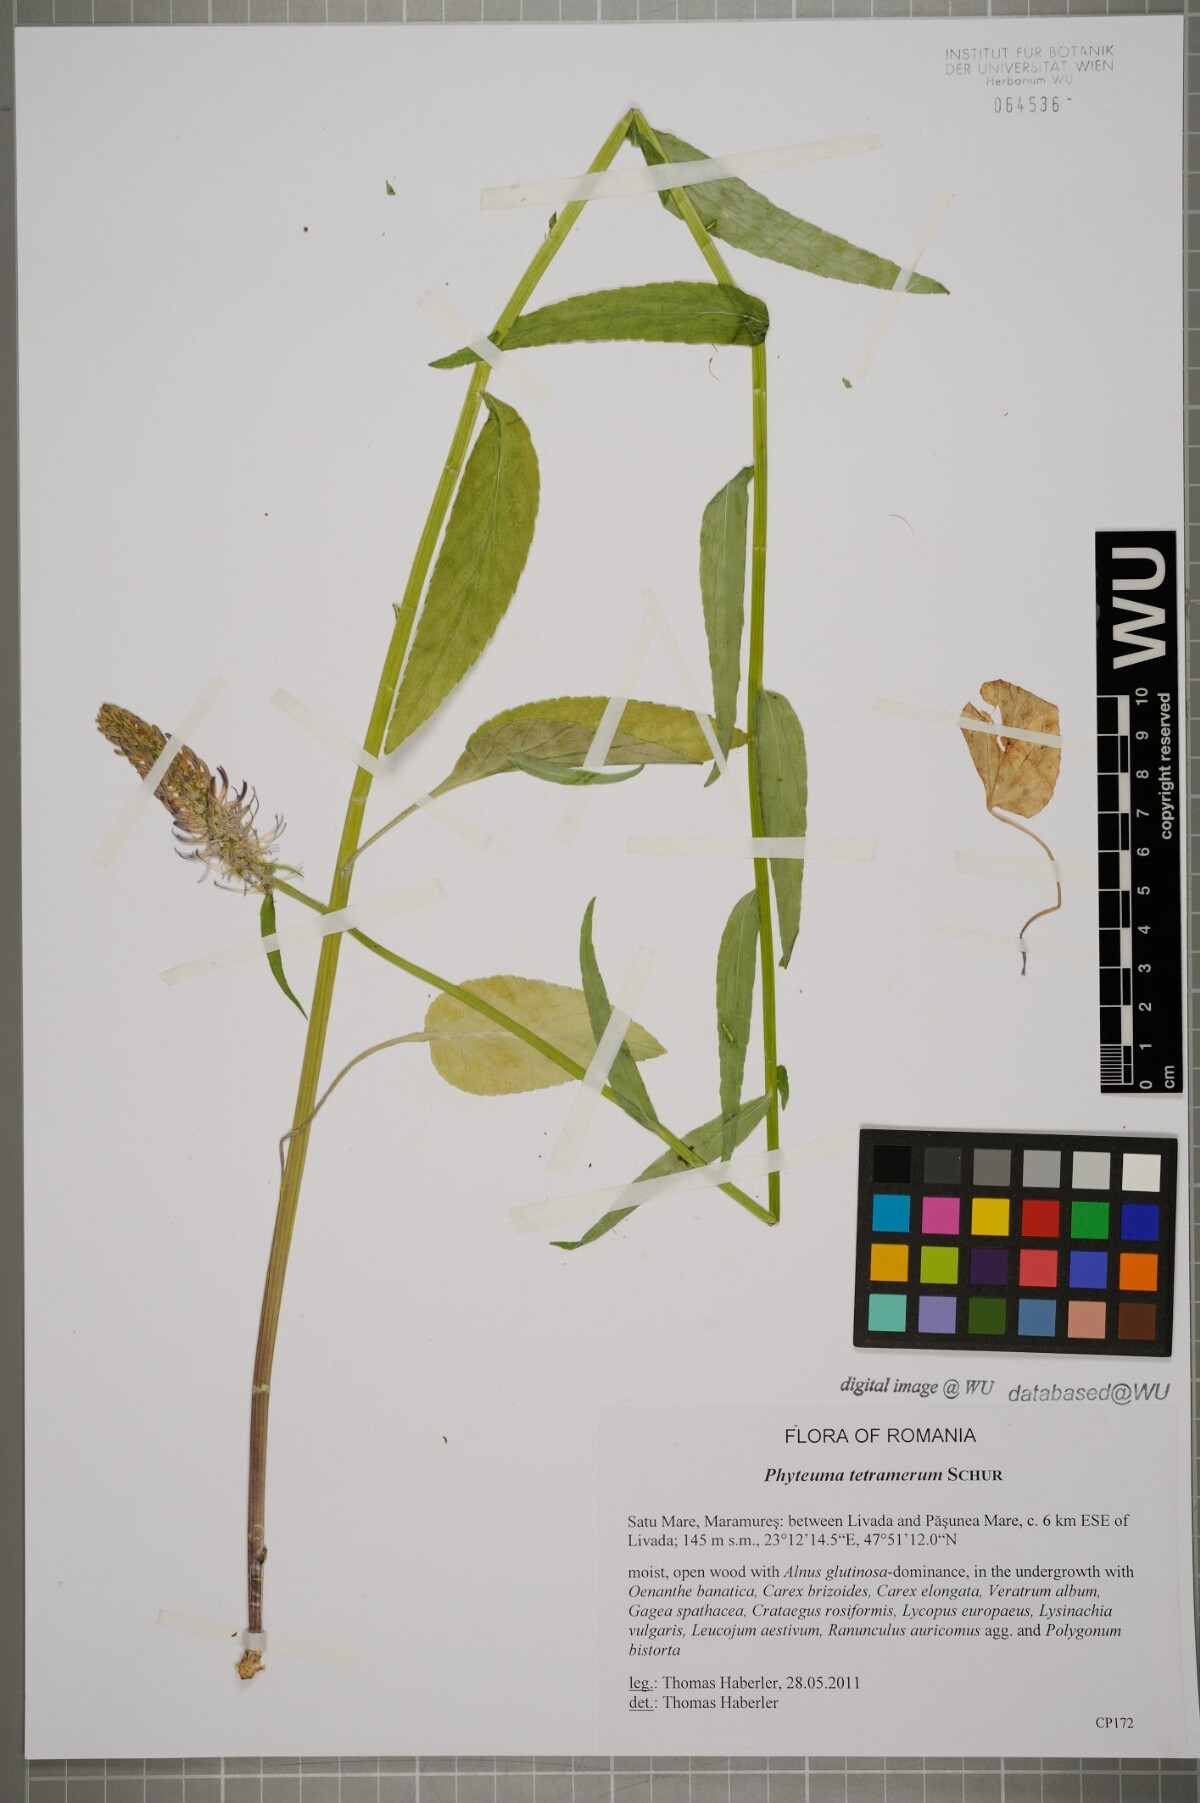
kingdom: Plantae
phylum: Tracheophyta
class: Magnoliopsida
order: Asterales
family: Campanulaceae
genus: Phyteuma
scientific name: Phyteuma tetramerum
